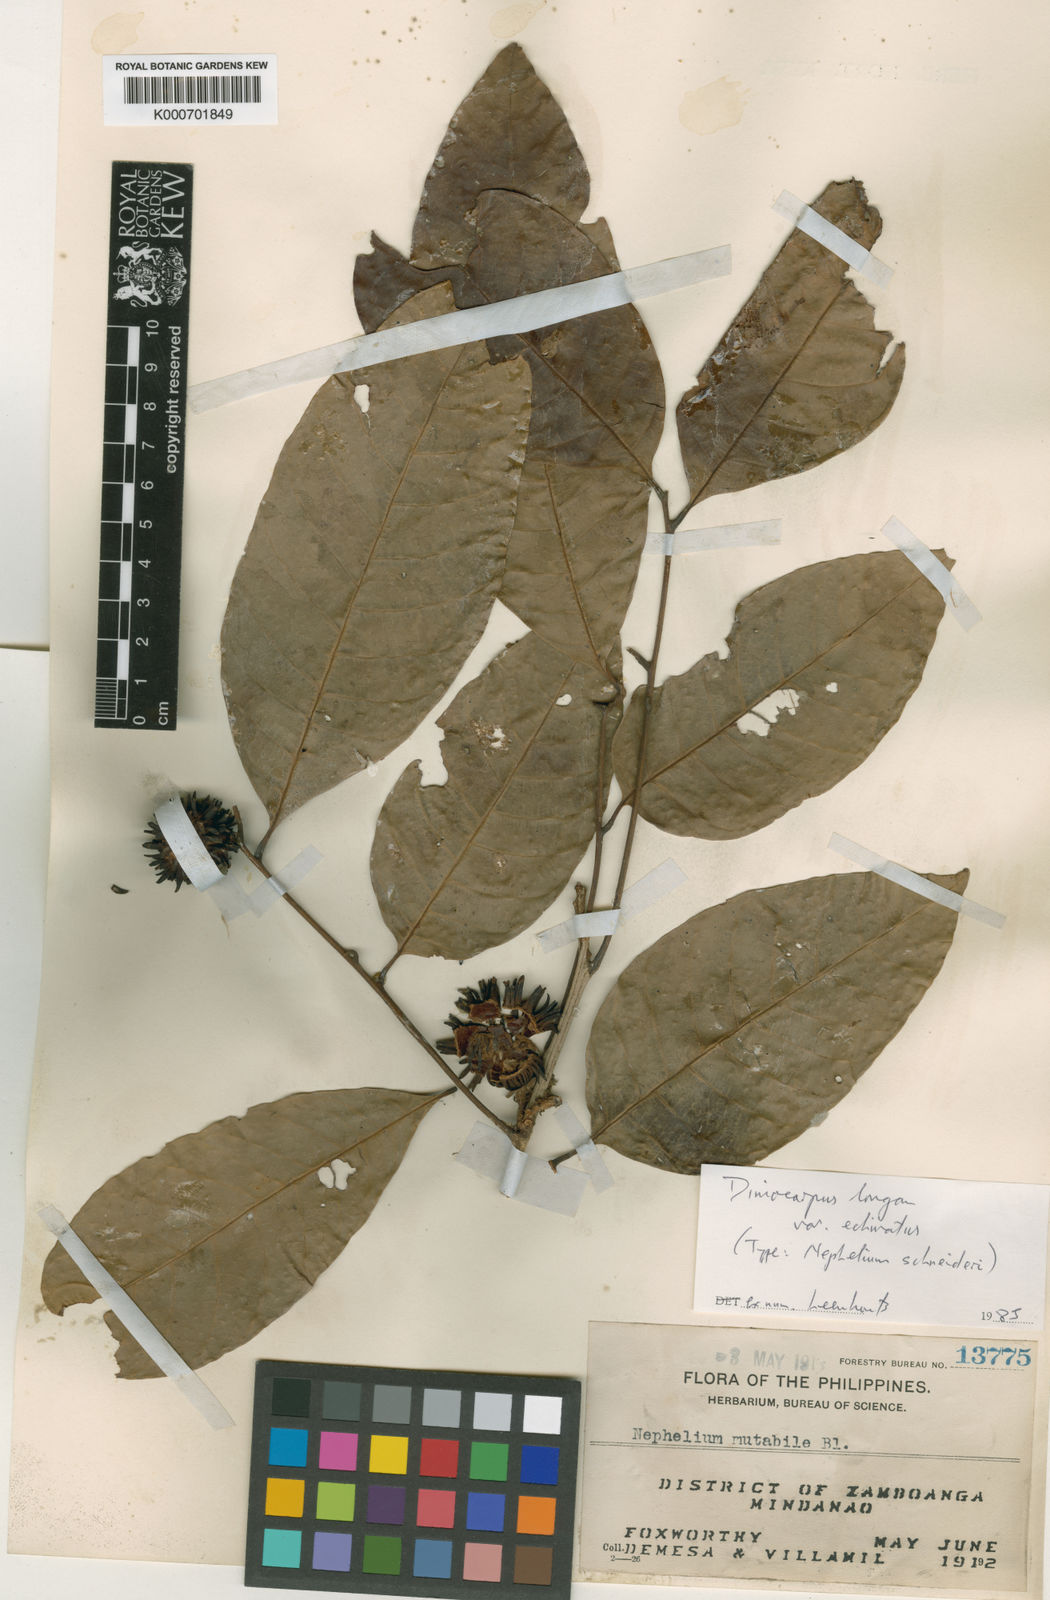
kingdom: Plantae
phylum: Tracheophyta
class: Magnoliopsida
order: Sapindales
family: Sapindaceae
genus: Dimocarpus
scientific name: Dimocarpus cinereus
